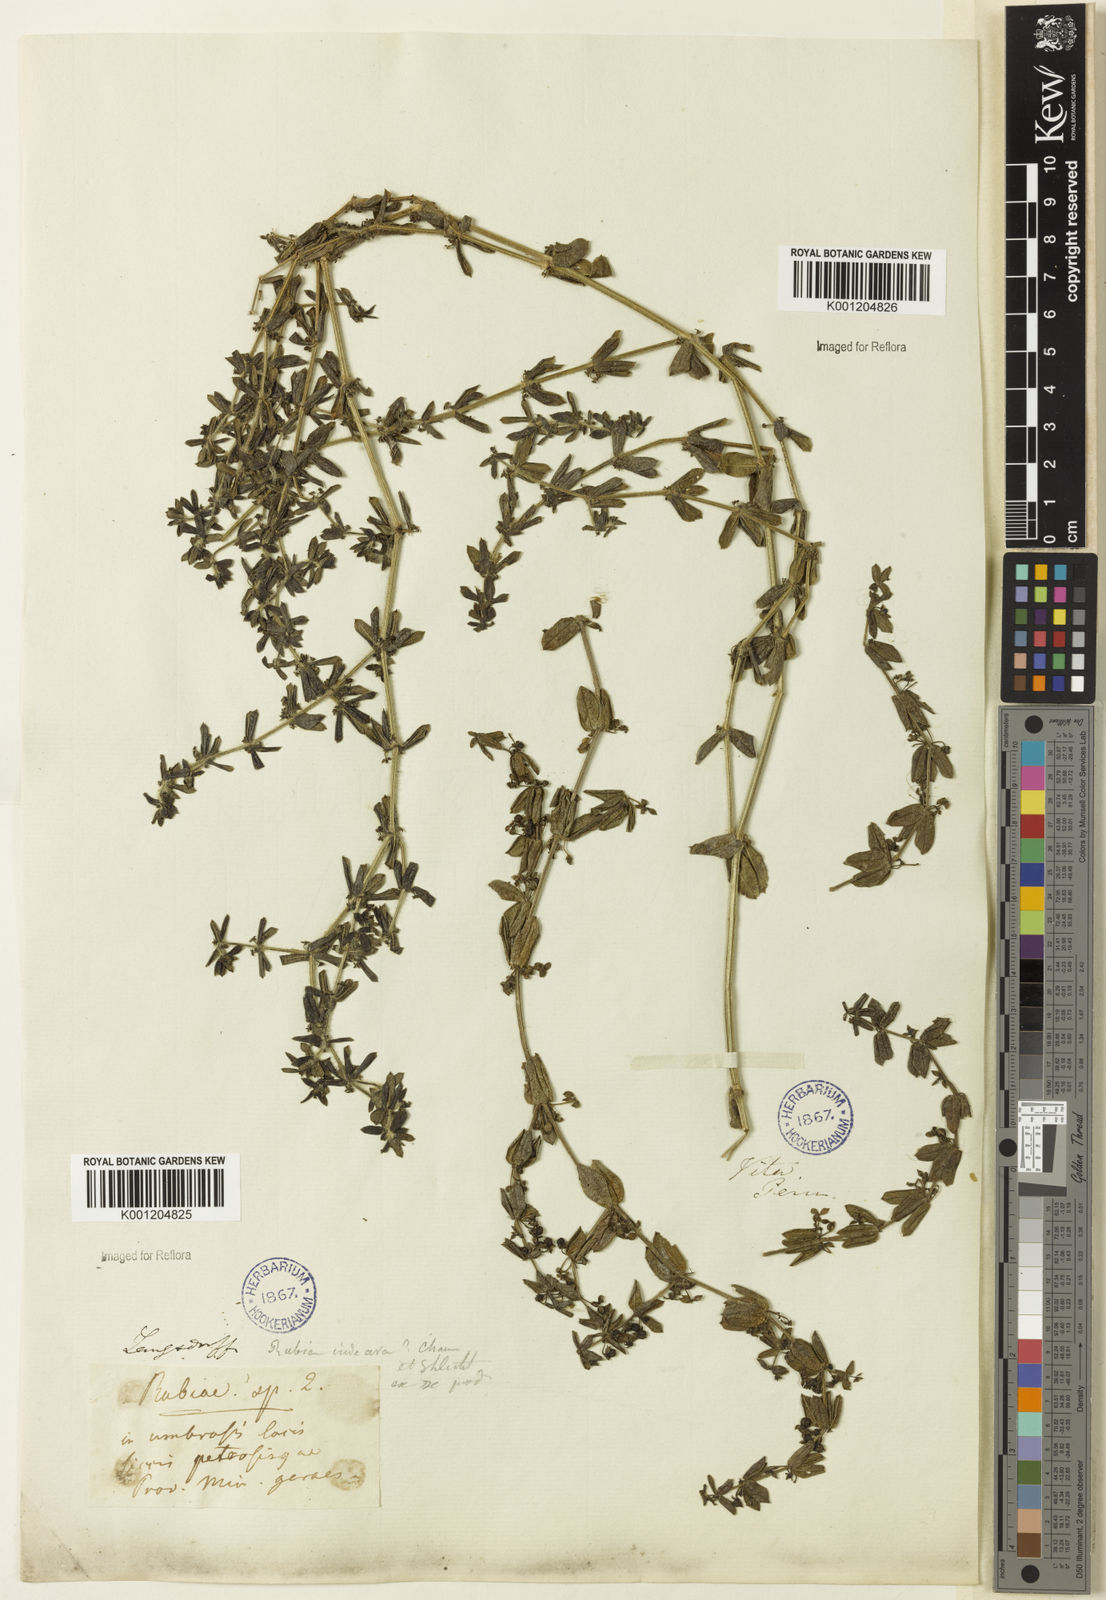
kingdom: Plantae
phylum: Tracheophyta
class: Magnoliopsida
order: Gentianales
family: Rubiaceae
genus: Galium
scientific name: Galium hypocarpium
